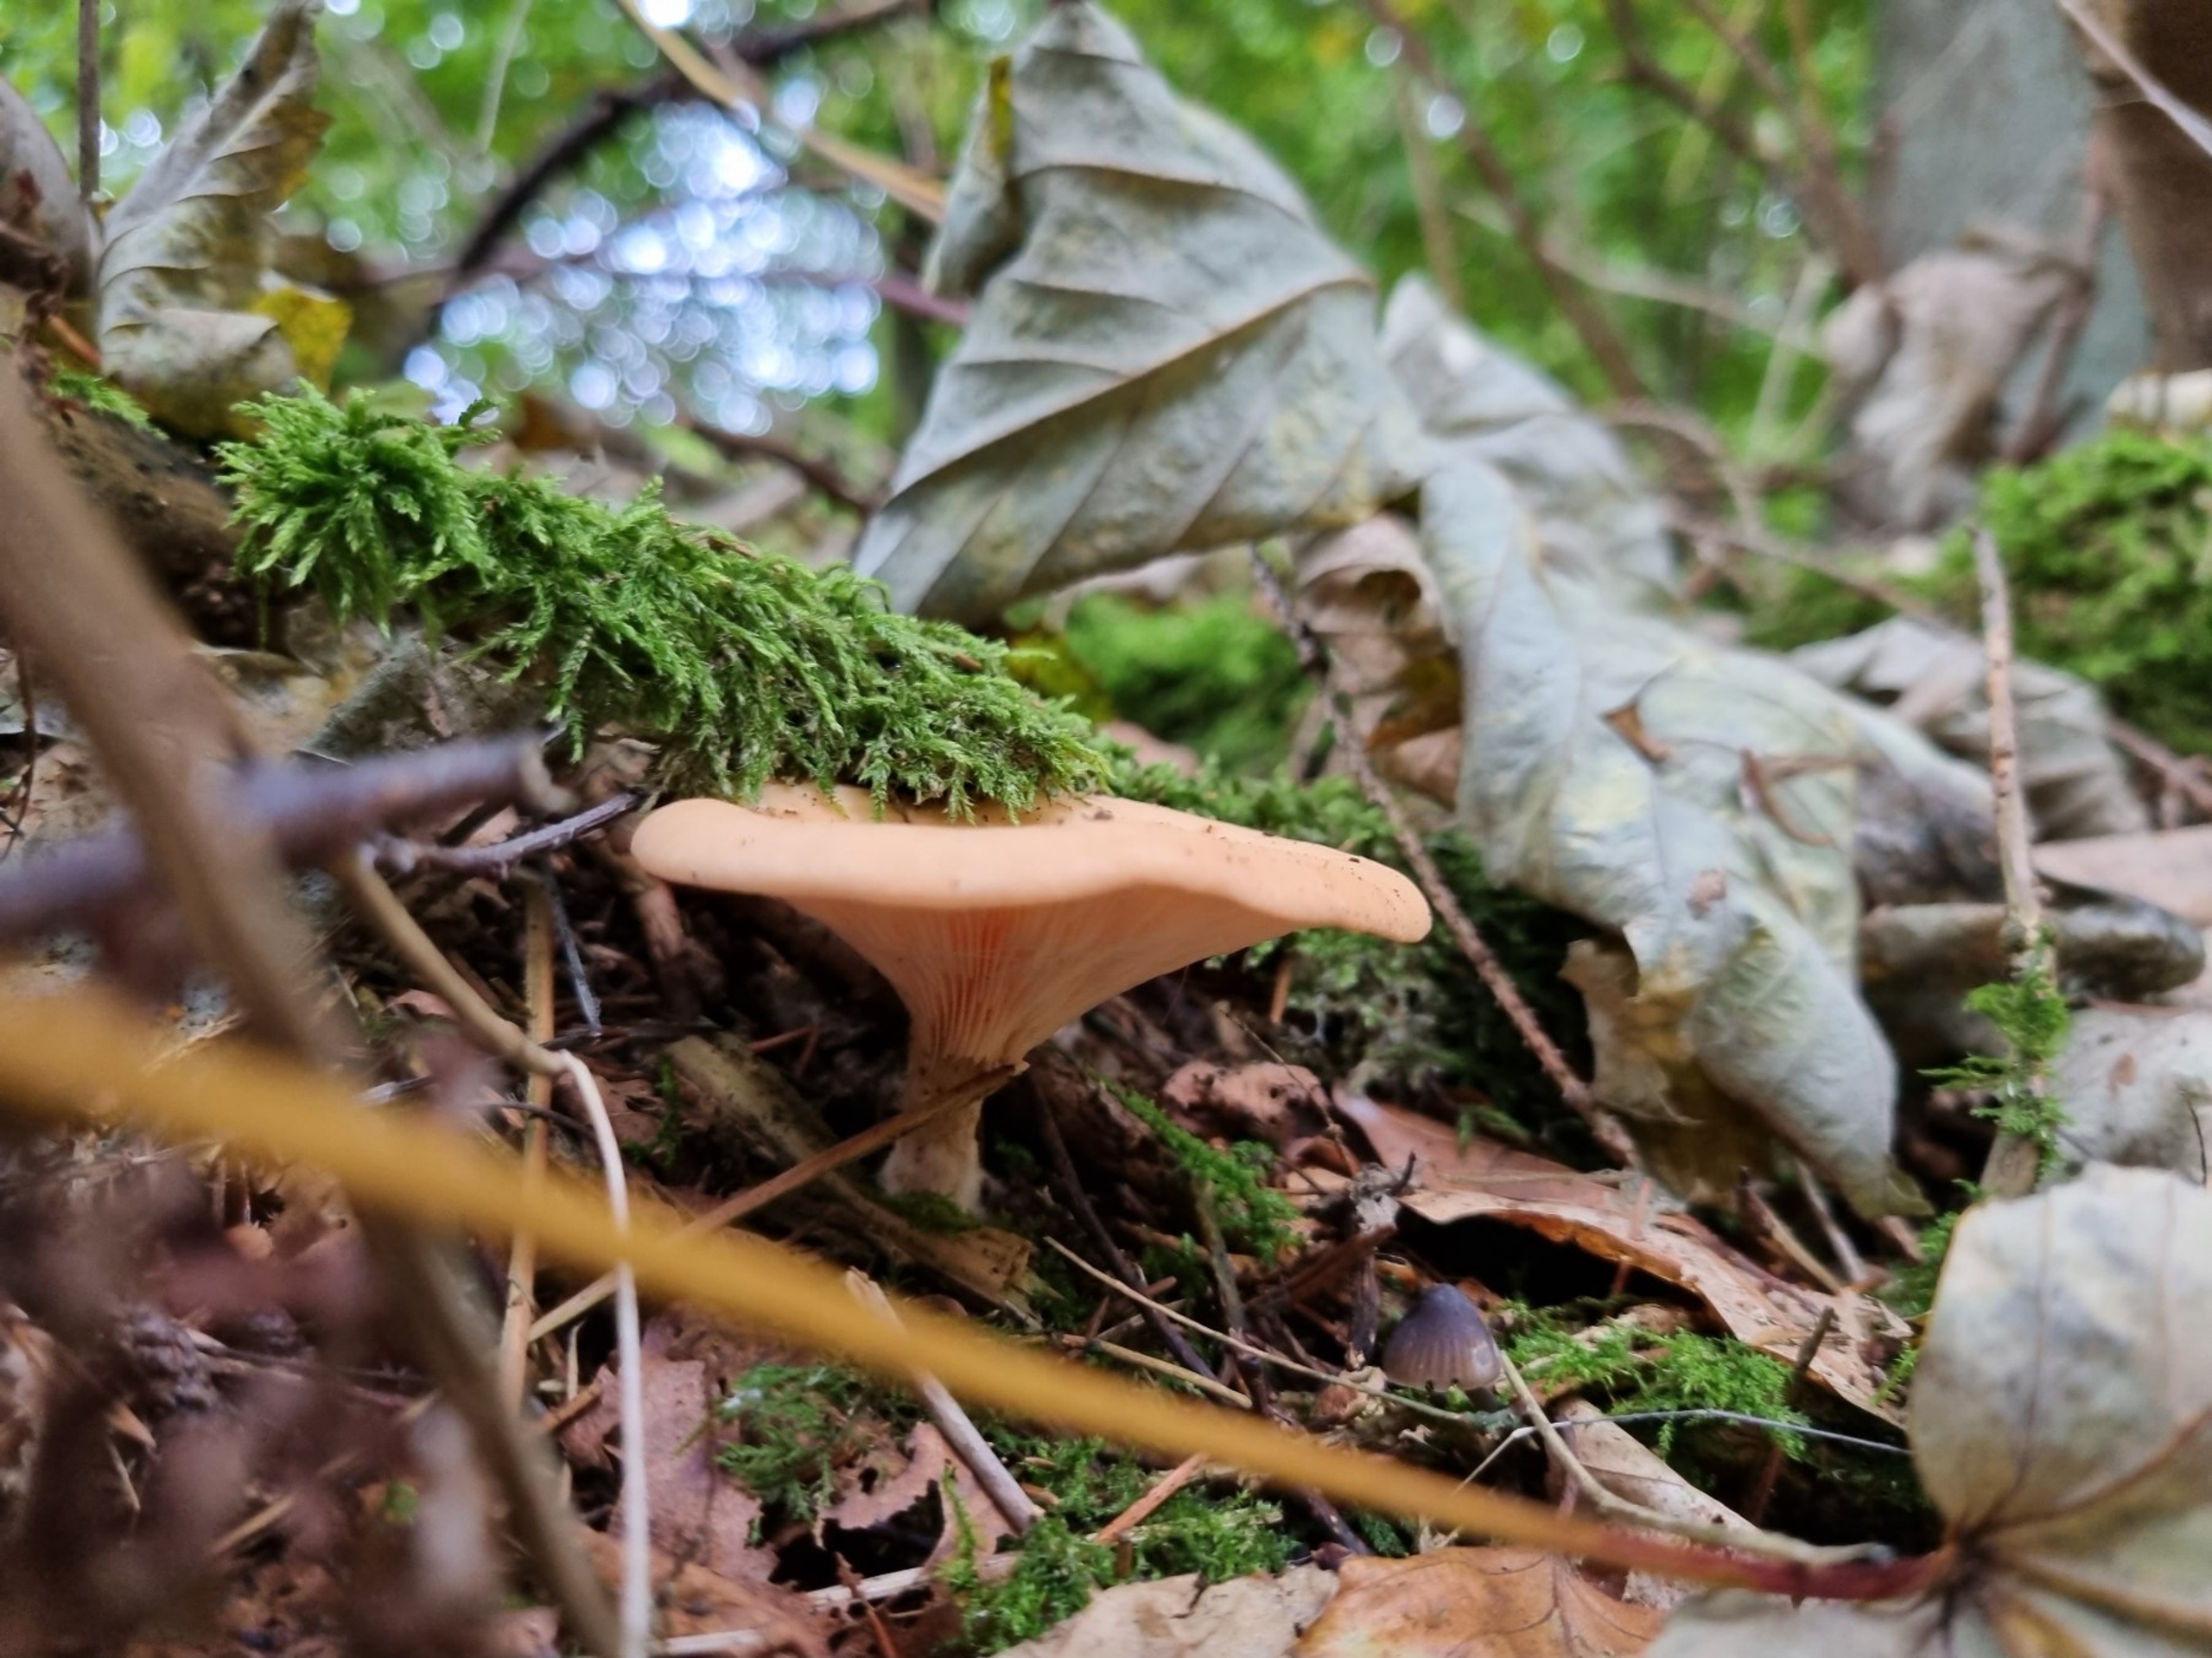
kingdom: Fungi
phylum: Basidiomycota
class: Agaricomycetes
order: Agaricales
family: Tricholomataceae
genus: Paralepista
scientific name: Paralepista flaccida
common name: Brunstænket hekseringshat
